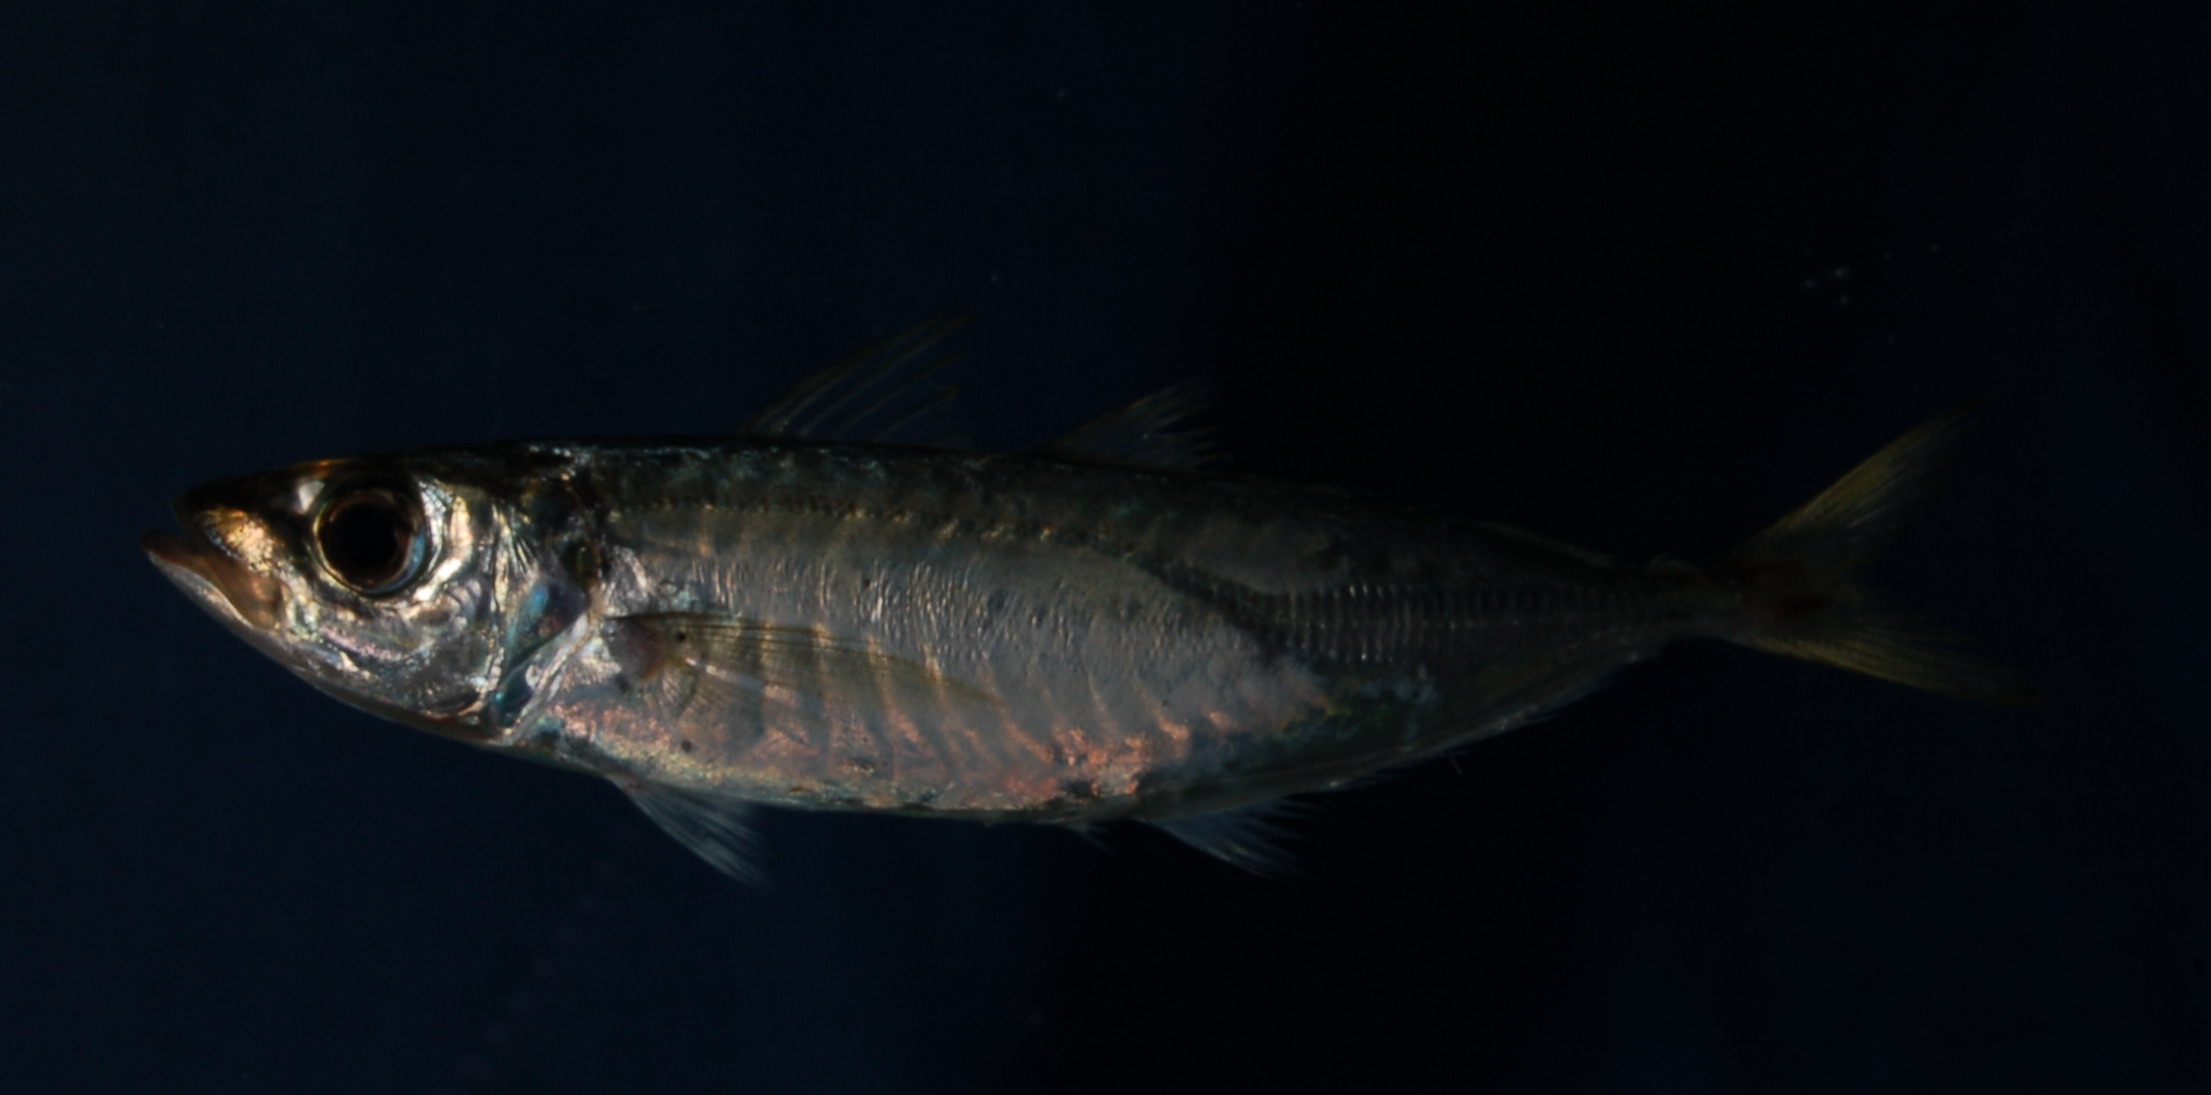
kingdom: Animalia
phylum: Chordata
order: Perciformes
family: Carangidae
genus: Decapterus
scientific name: Decapterus russelli
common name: Indian scad
